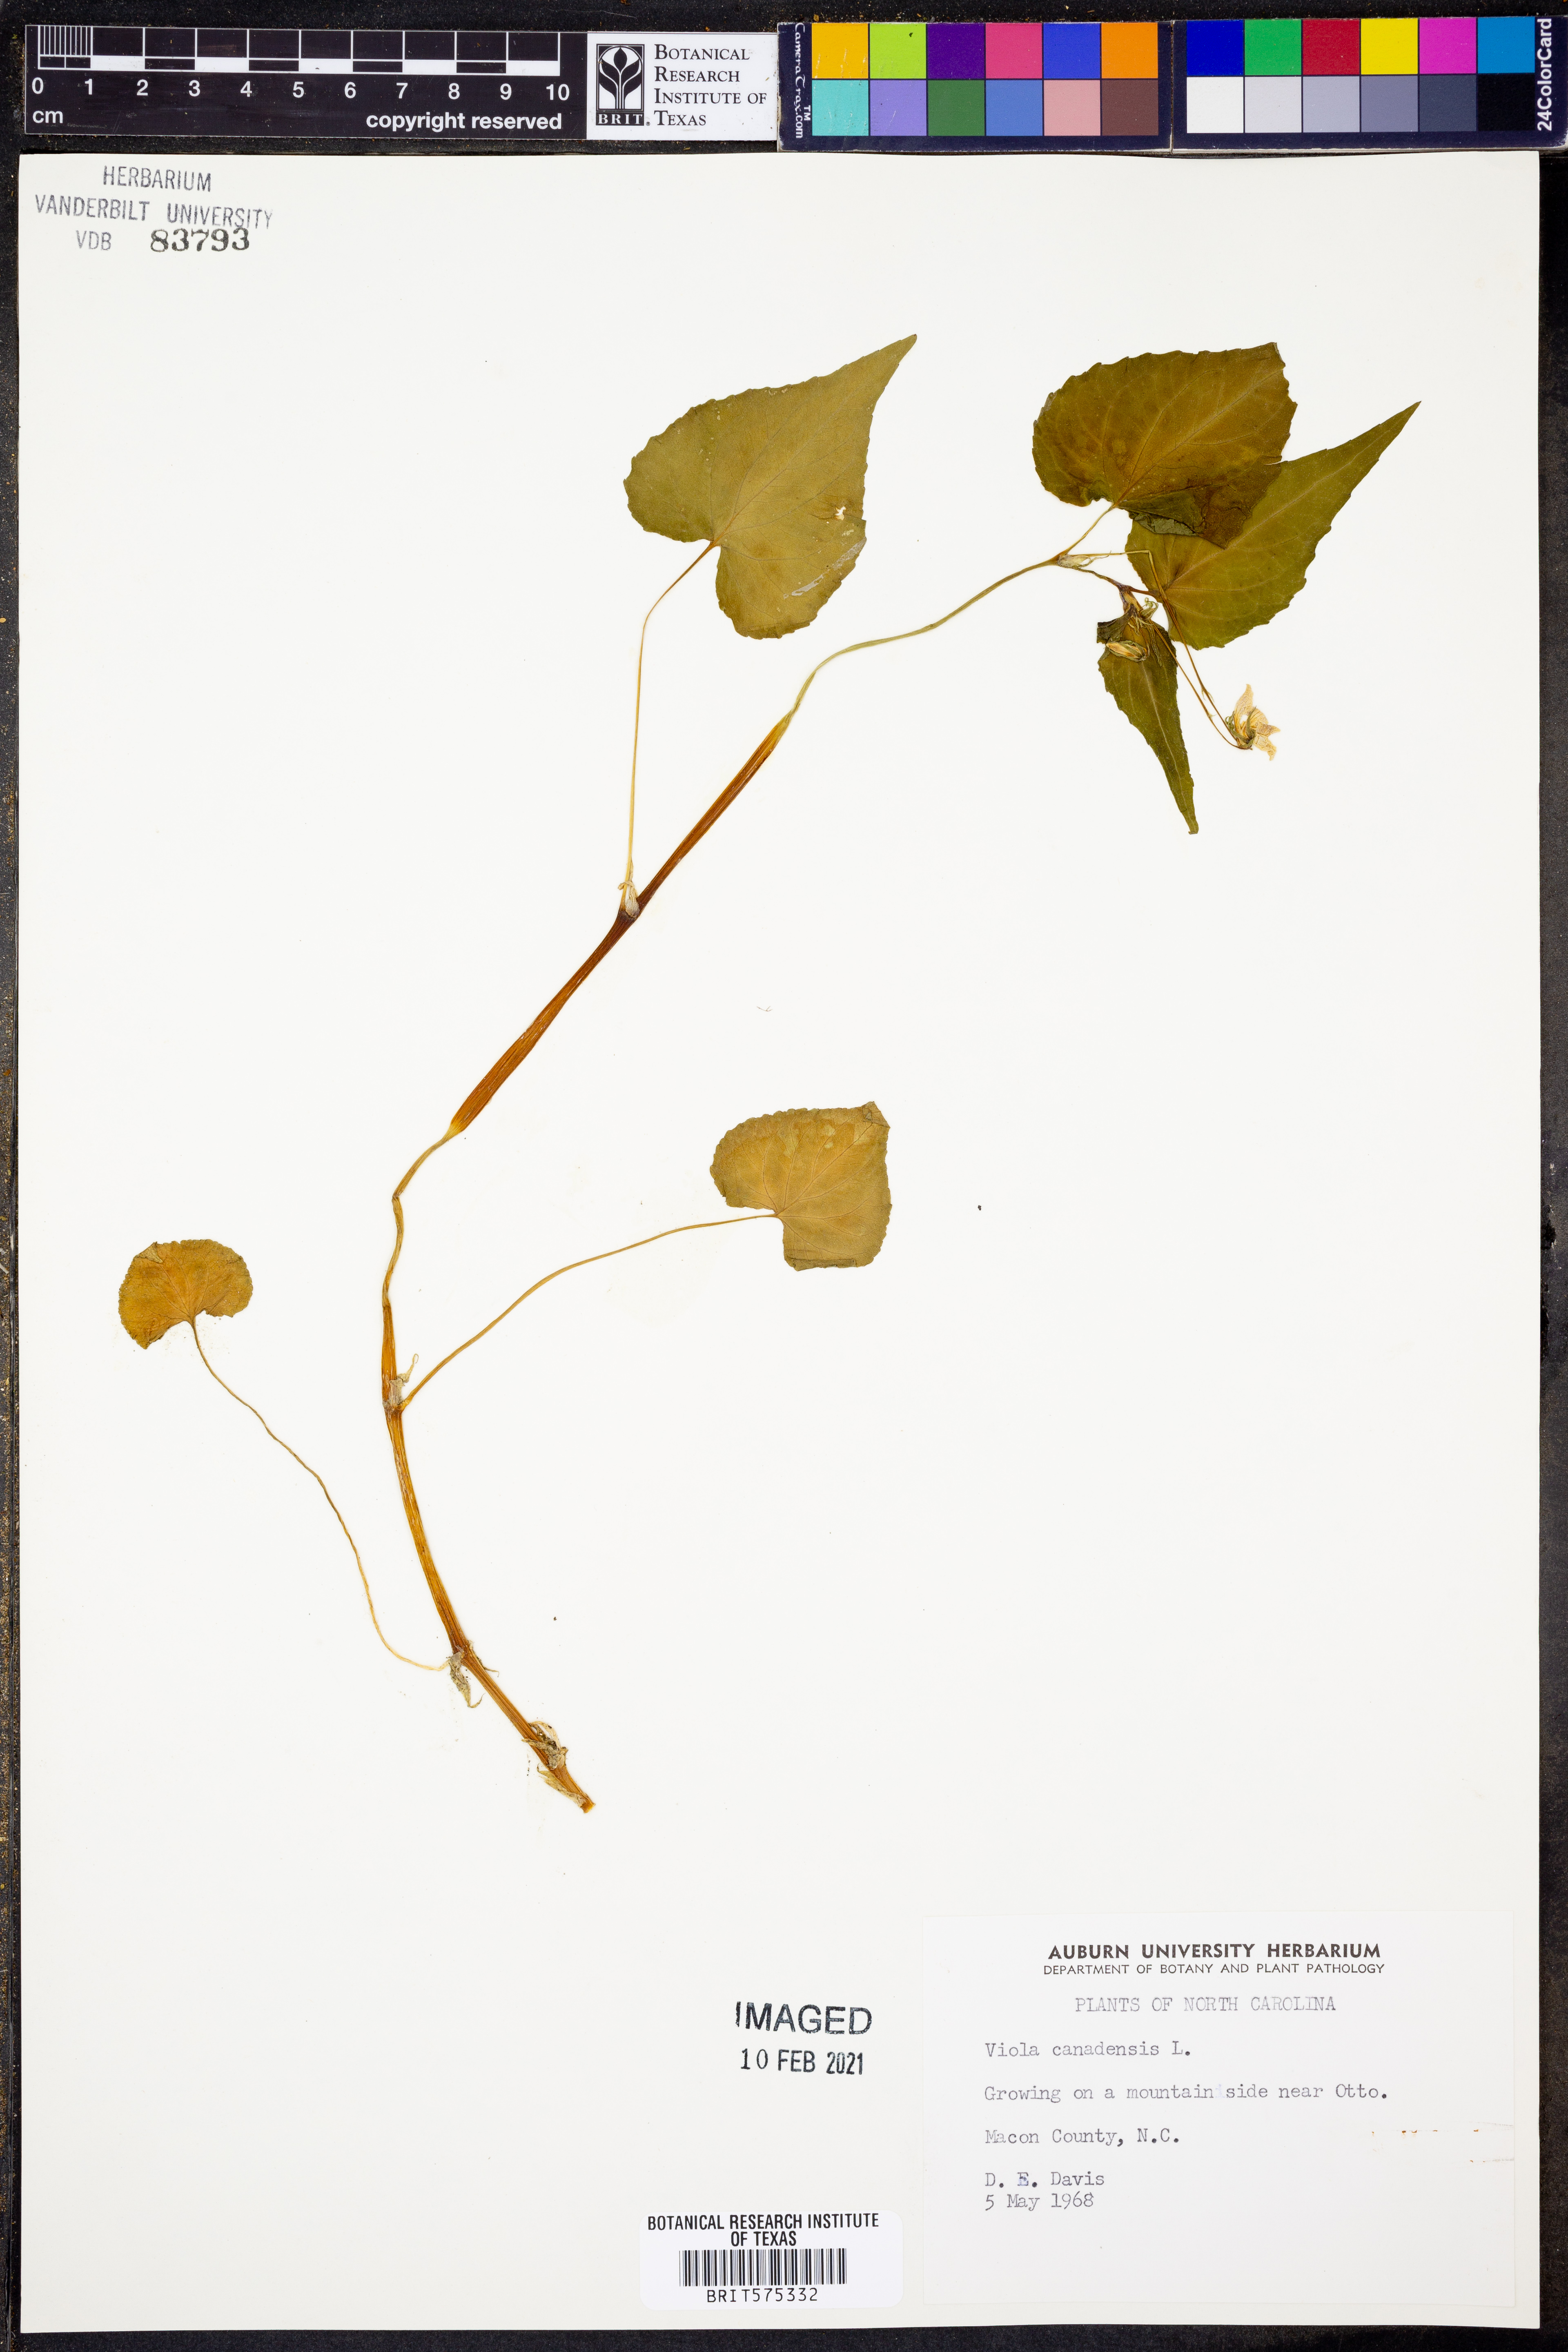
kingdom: Plantae
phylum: Tracheophyta
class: Magnoliopsida
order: Malpighiales
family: Violaceae
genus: Viola
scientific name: Viola canadensis
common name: Canada violet
